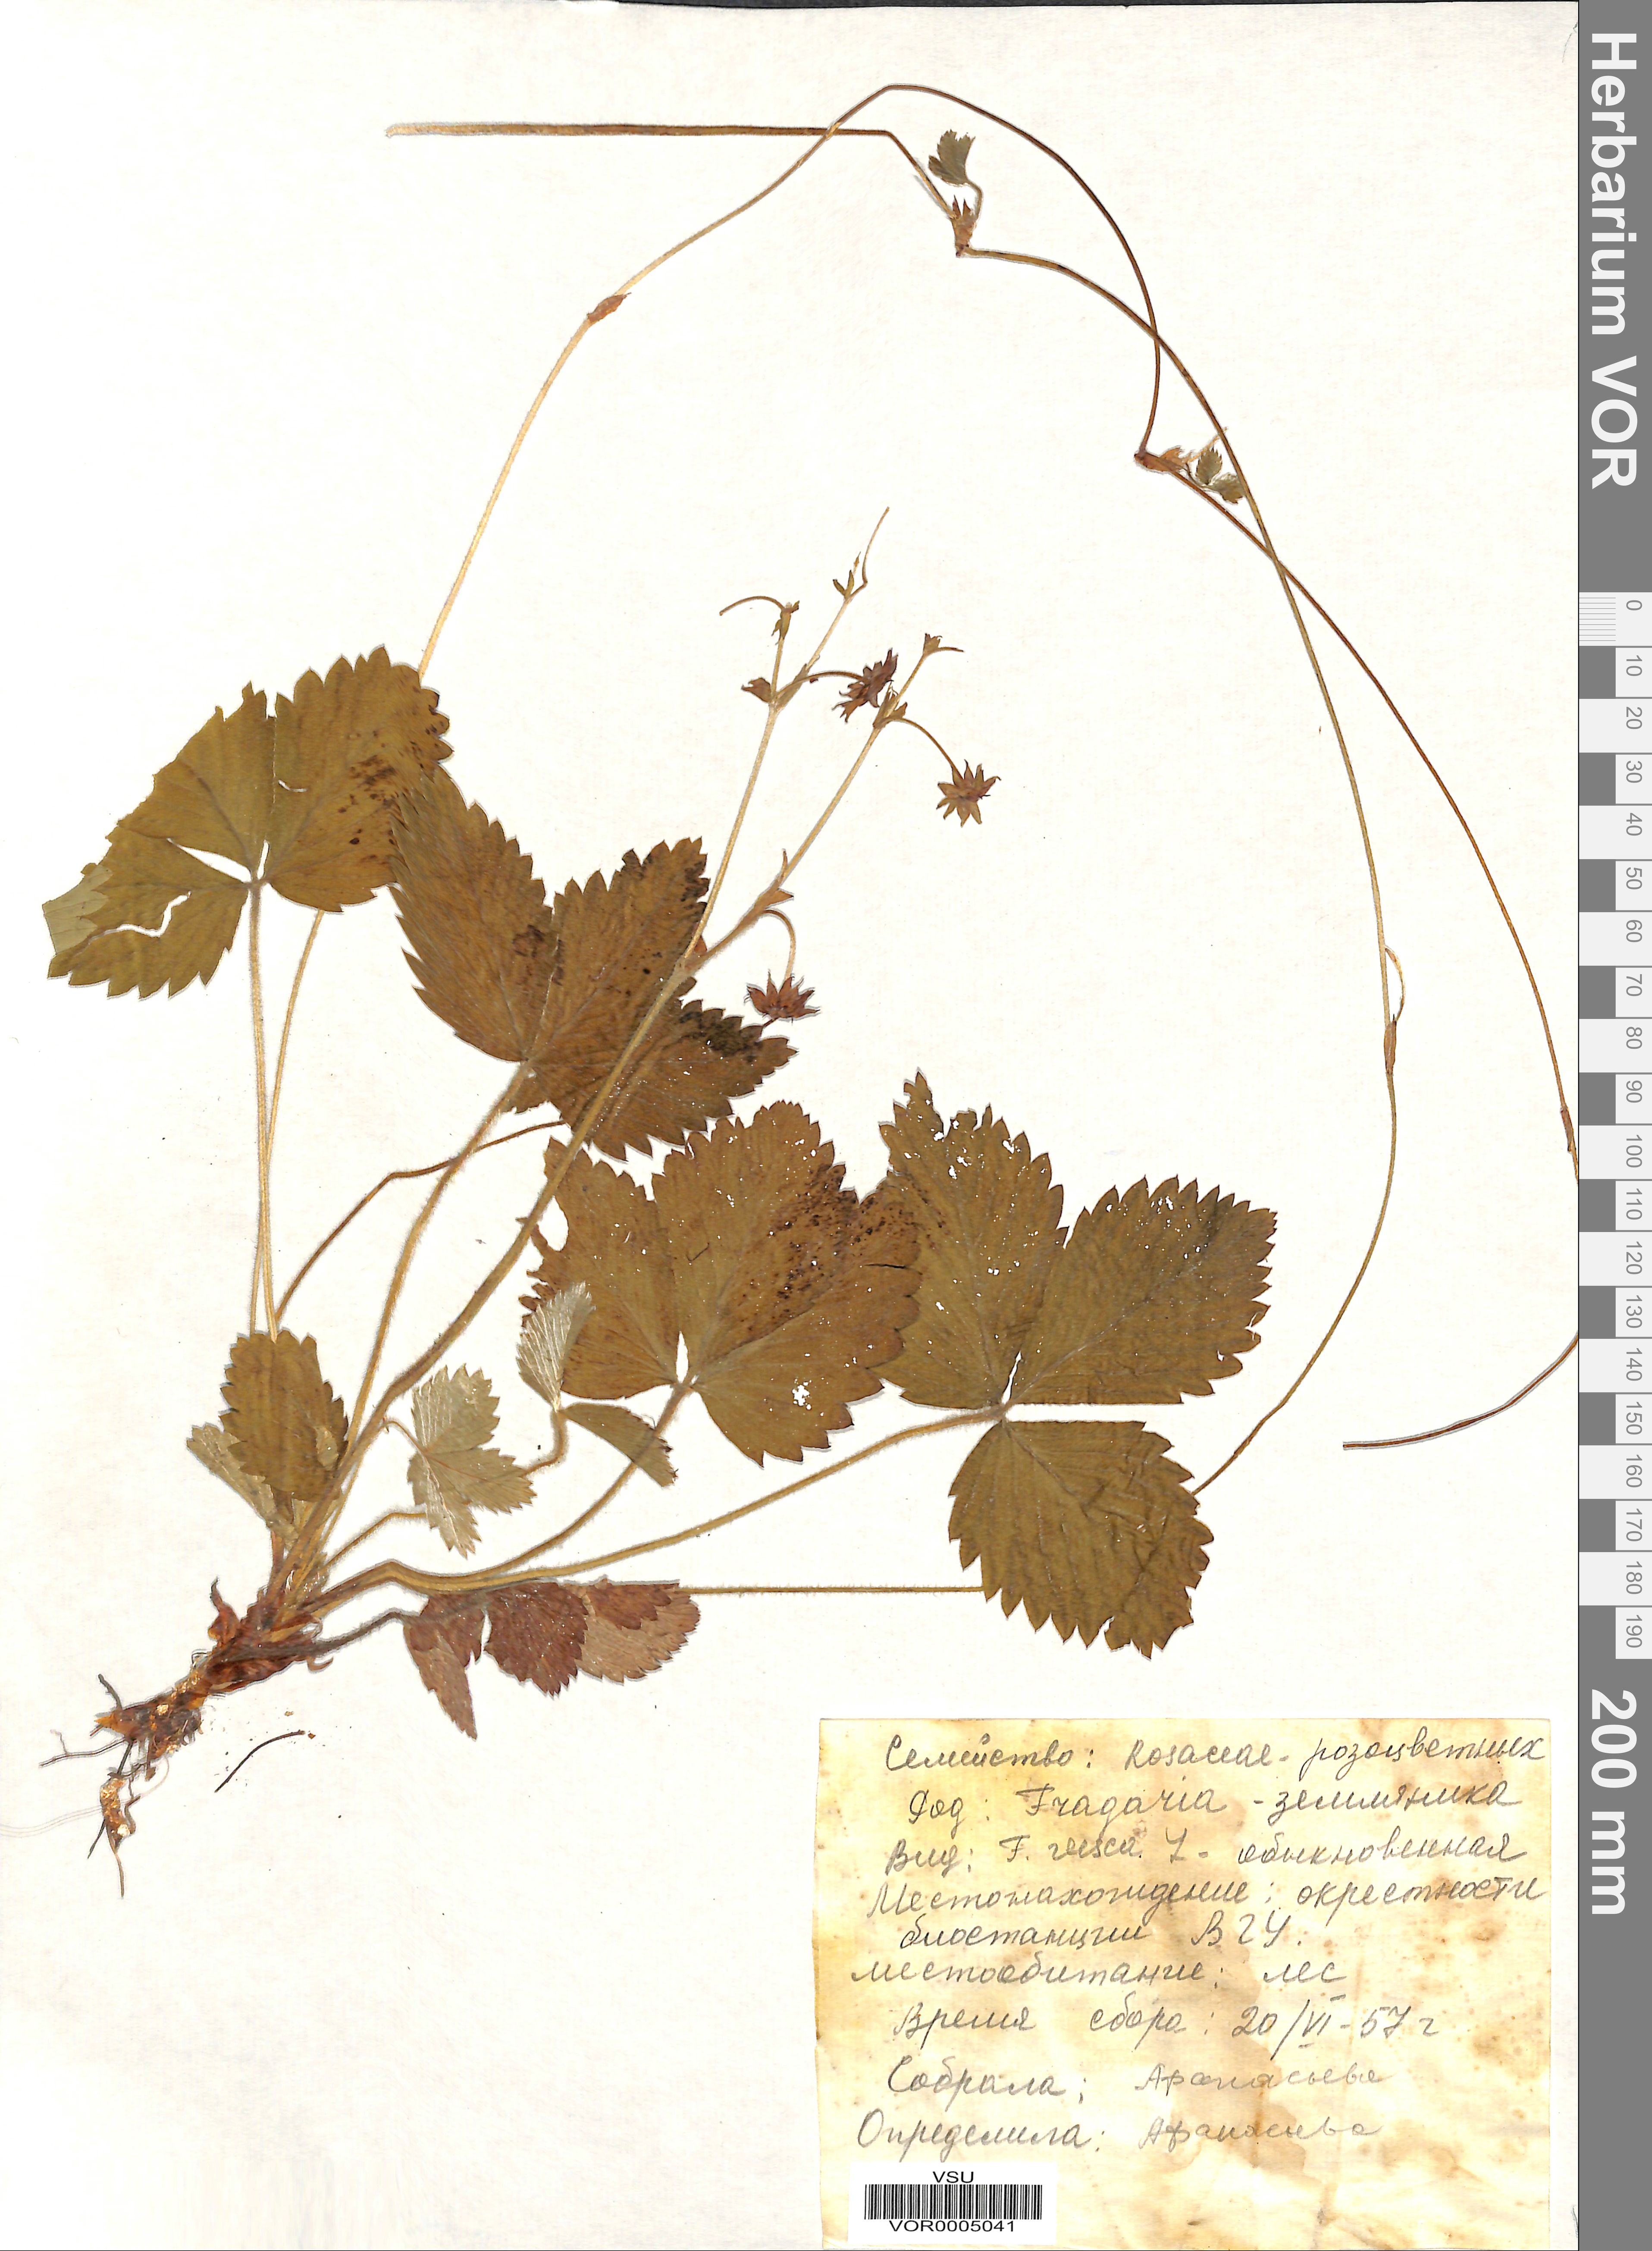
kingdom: Plantae
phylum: Tracheophyta
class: Magnoliopsida
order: Rosales
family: Rosaceae
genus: Fragaria
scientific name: Fragaria vesca
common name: Wild strawberry
